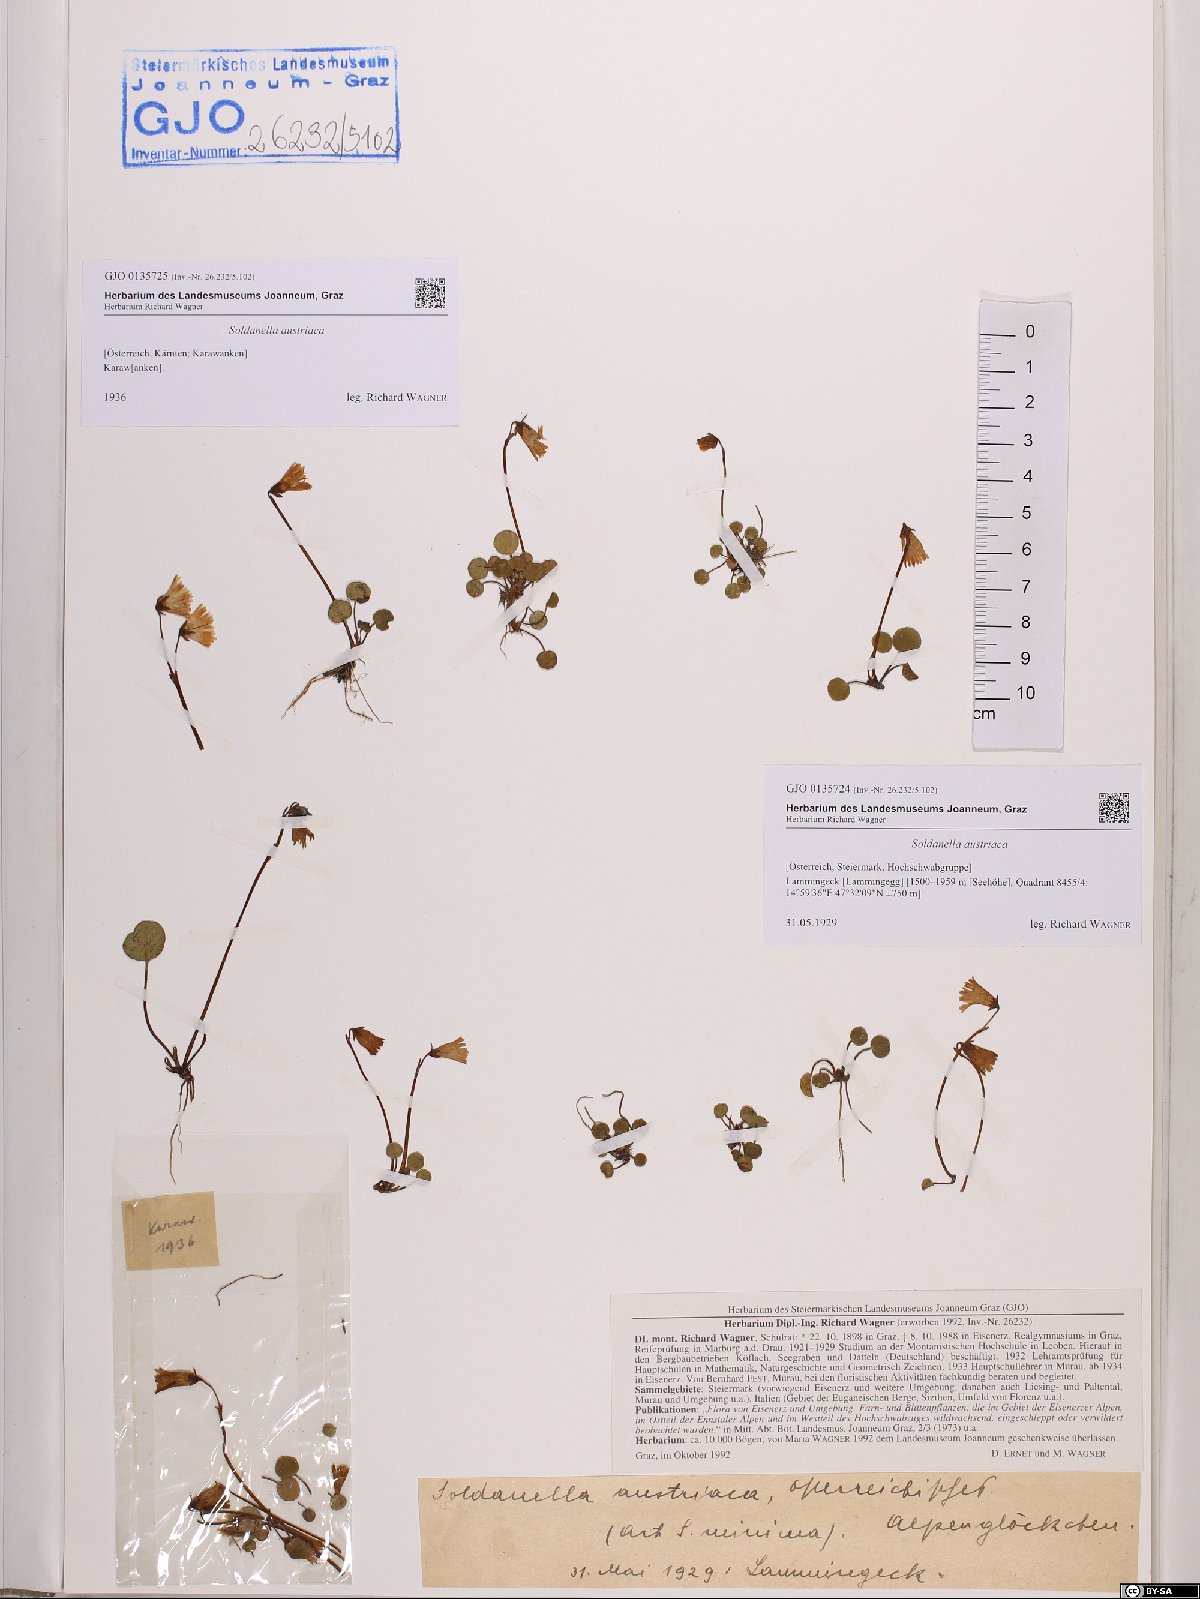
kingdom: Plantae
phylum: Tracheophyta
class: Magnoliopsida
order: Ericales
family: Primulaceae
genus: Soldanella
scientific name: Soldanella austriaca
